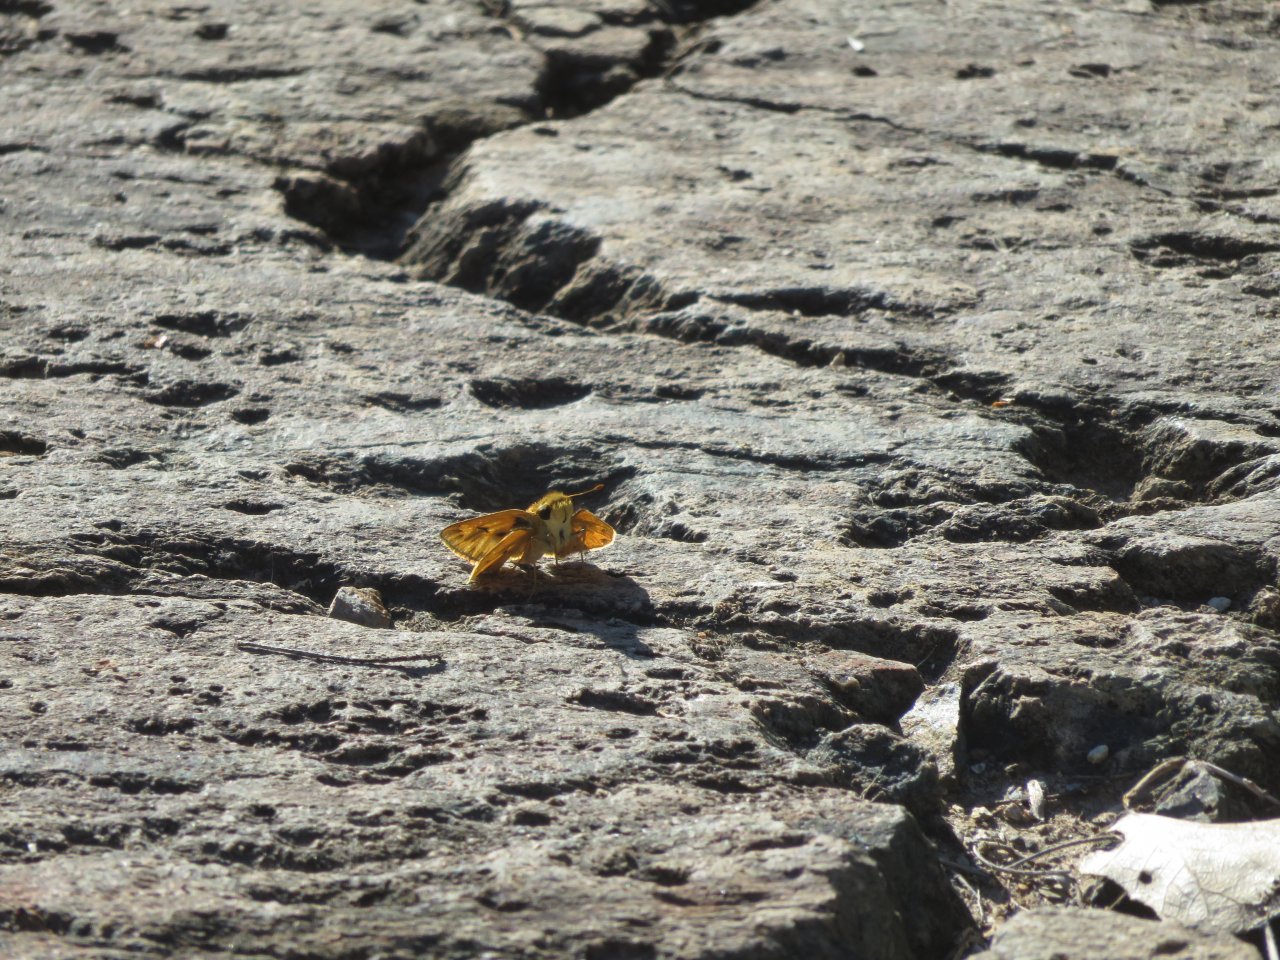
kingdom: Animalia
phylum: Arthropoda
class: Insecta
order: Lepidoptera
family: Hesperiidae
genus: Hylephila
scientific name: Hylephila phyleus
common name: Fiery Skipper
